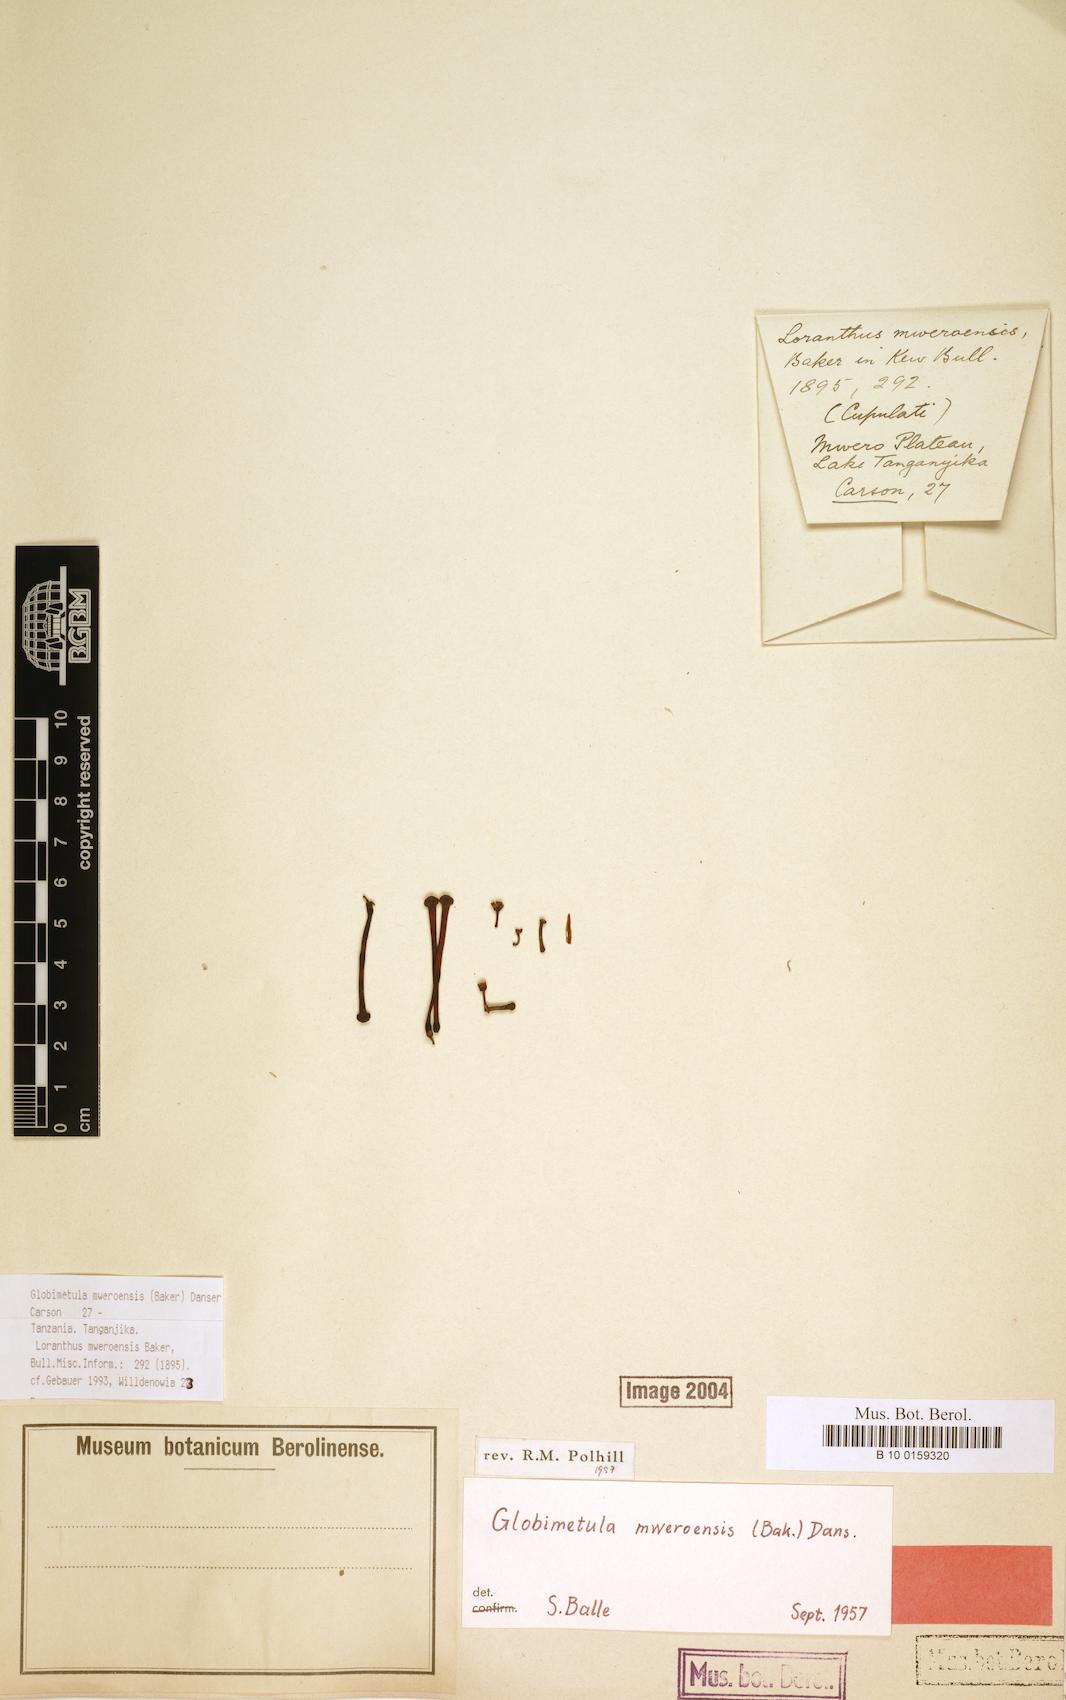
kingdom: Plantae
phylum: Tracheophyta
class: Magnoliopsida
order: Santalales
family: Loranthaceae
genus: Globimetula
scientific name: Globimetula mweroensis
